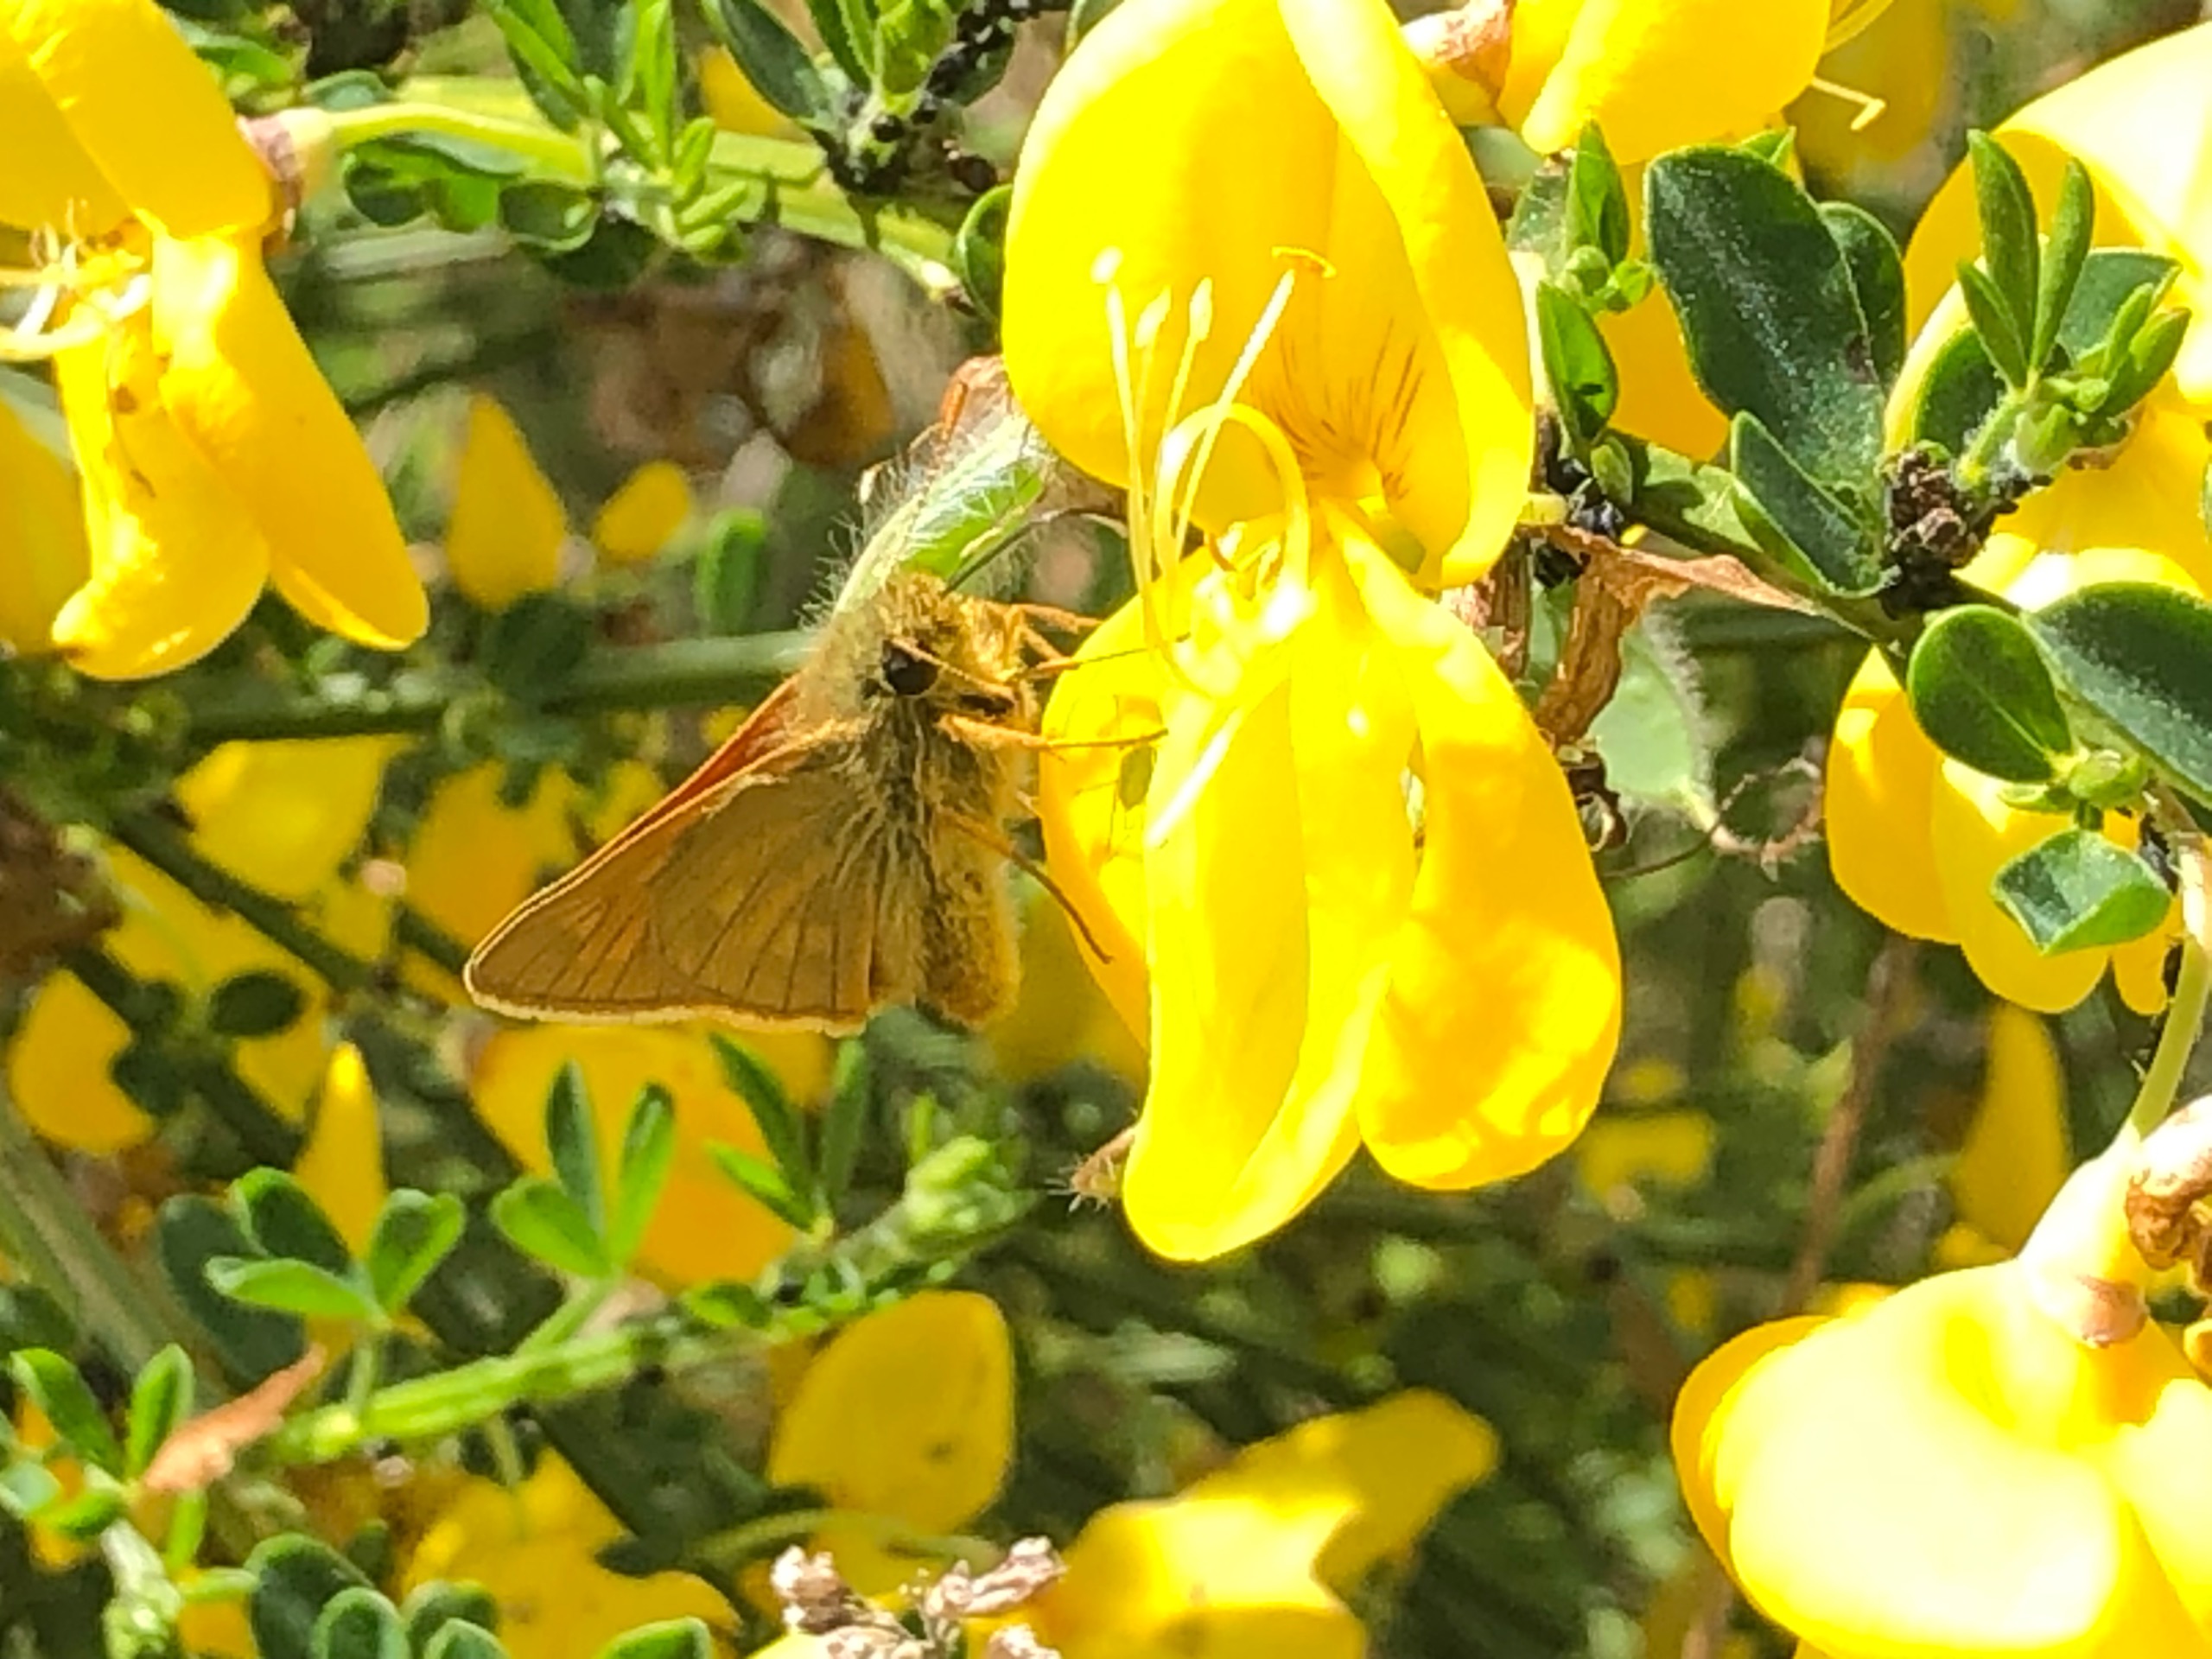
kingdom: Animalia
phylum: Arthropoda
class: Insecta
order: Lepidoptera
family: Hesperiidae
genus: Ochlodes
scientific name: Ochlodes venata
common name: Stor bredpande
